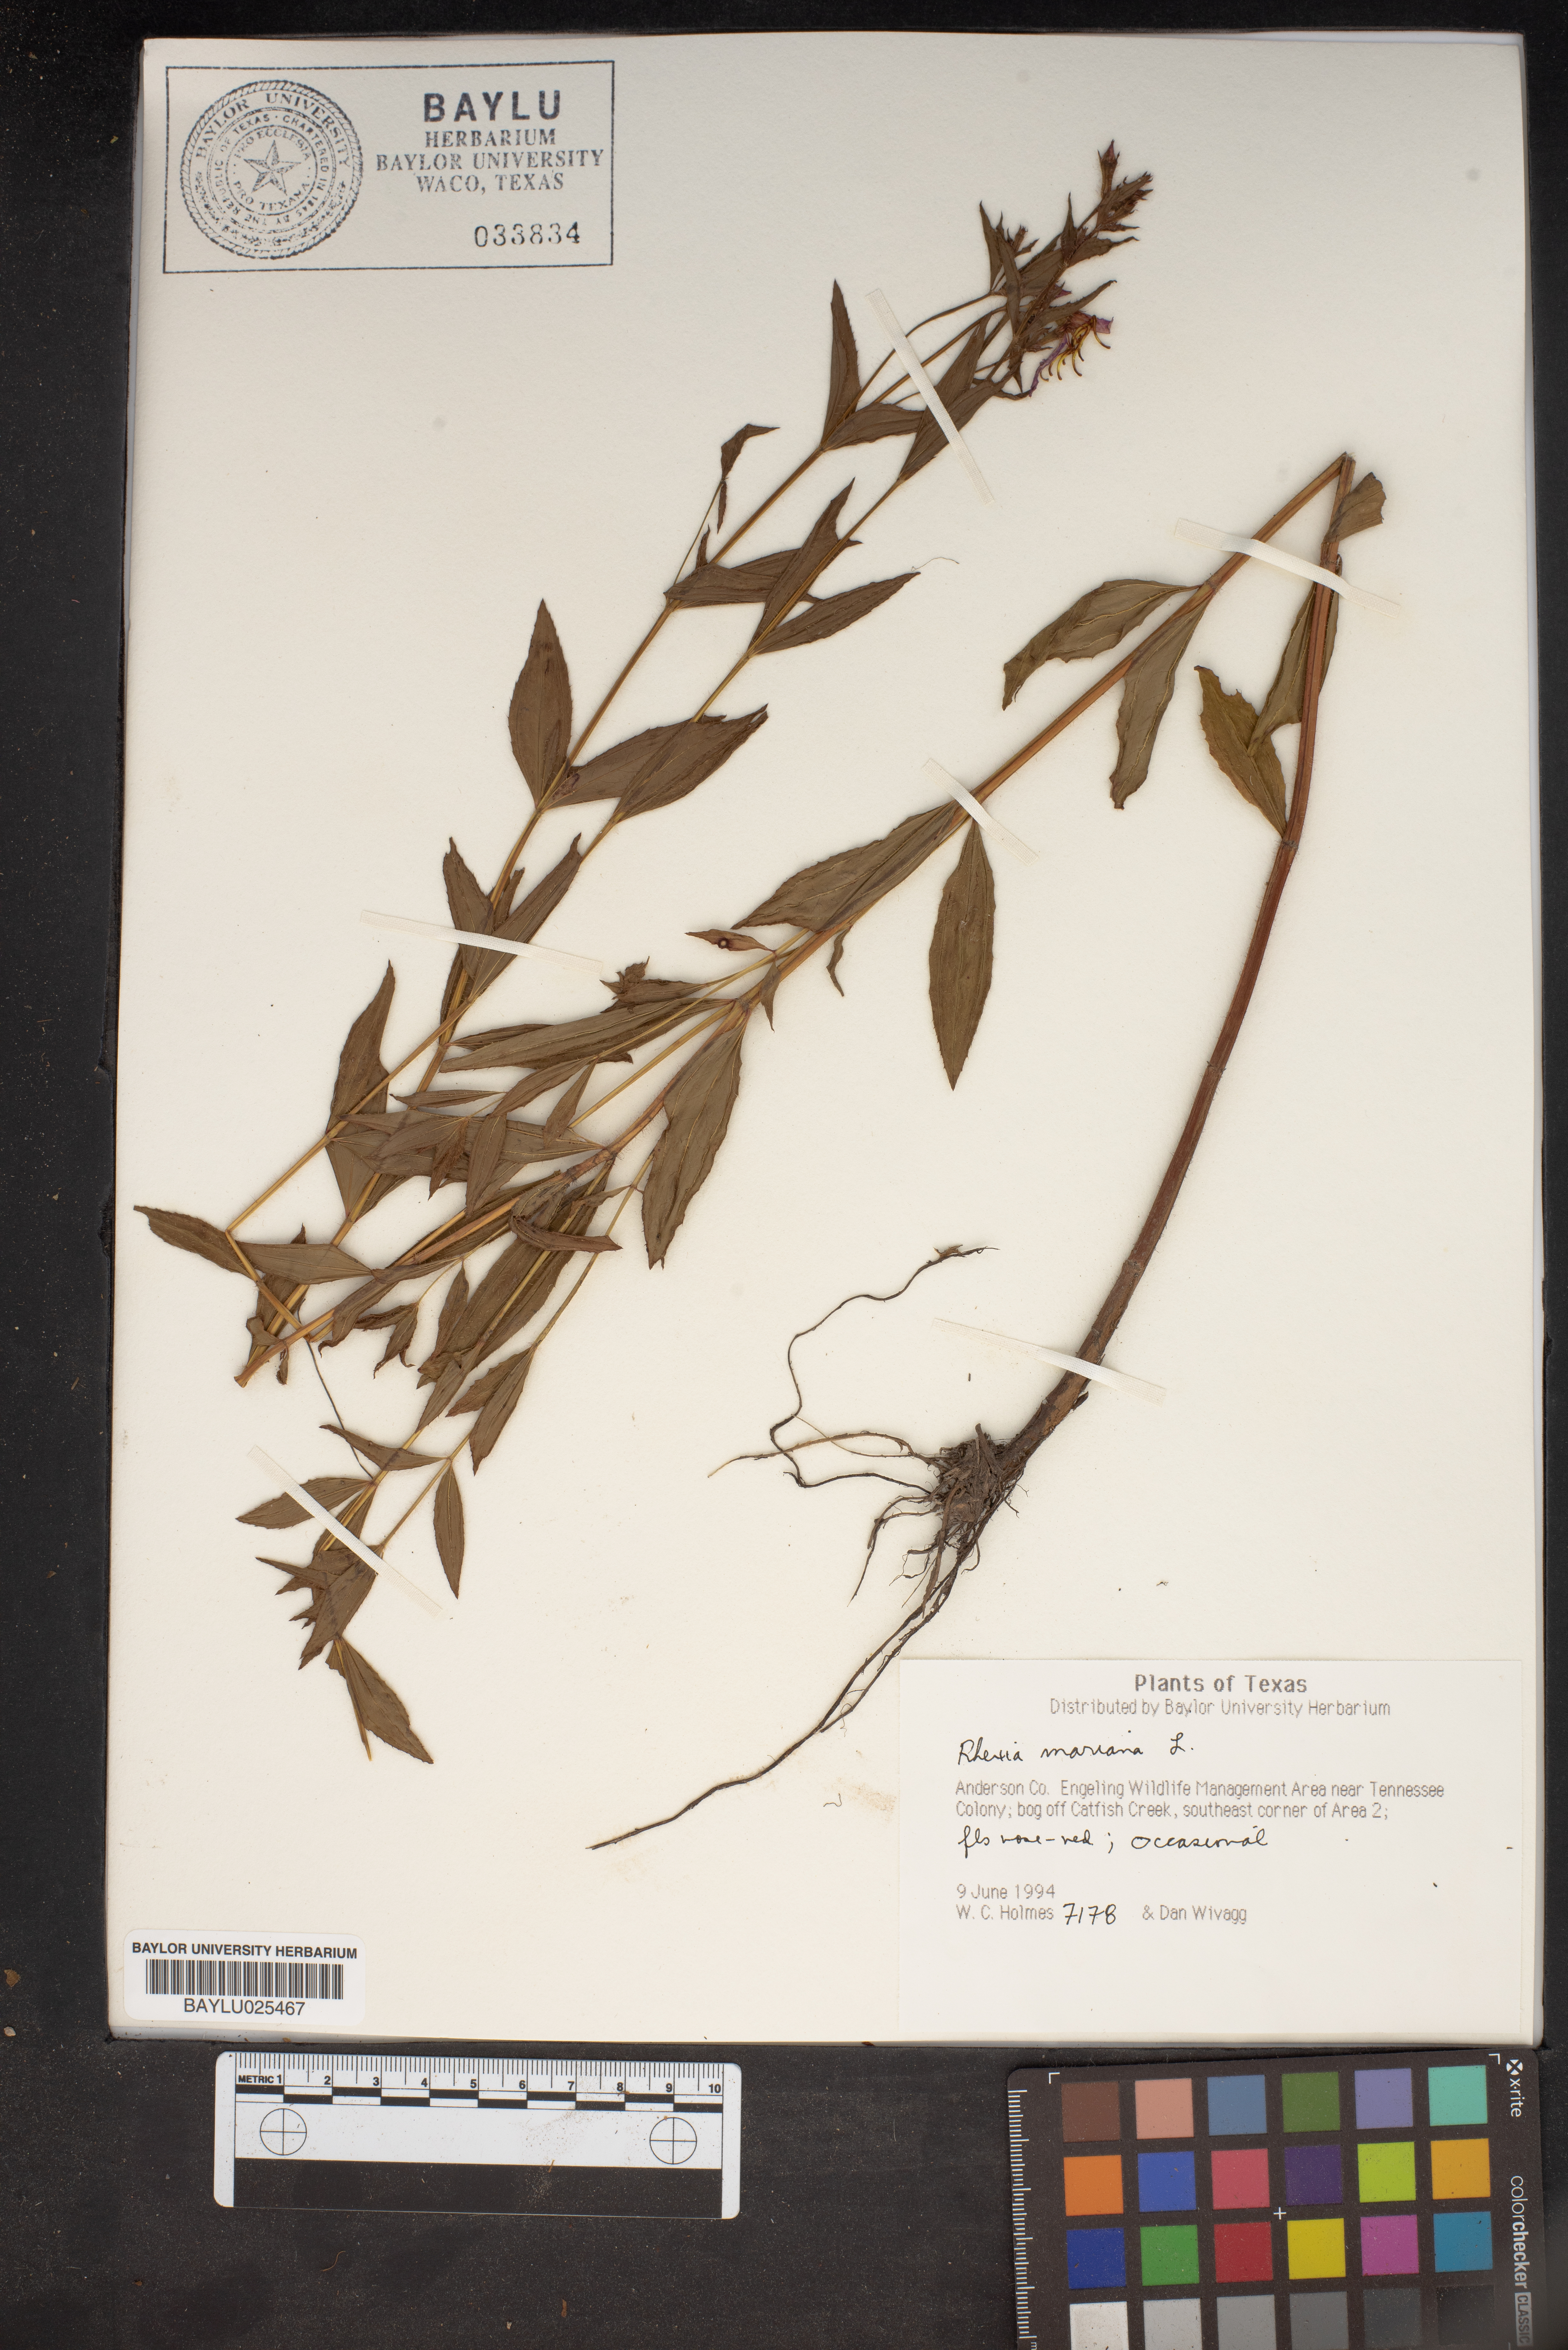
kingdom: Plantae
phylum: Tracheophyta
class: Magnoliopsida
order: Myrtales
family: Melastomataceae
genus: Rhexia
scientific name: Rhexia mariana
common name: Dull meadow-pitcher
